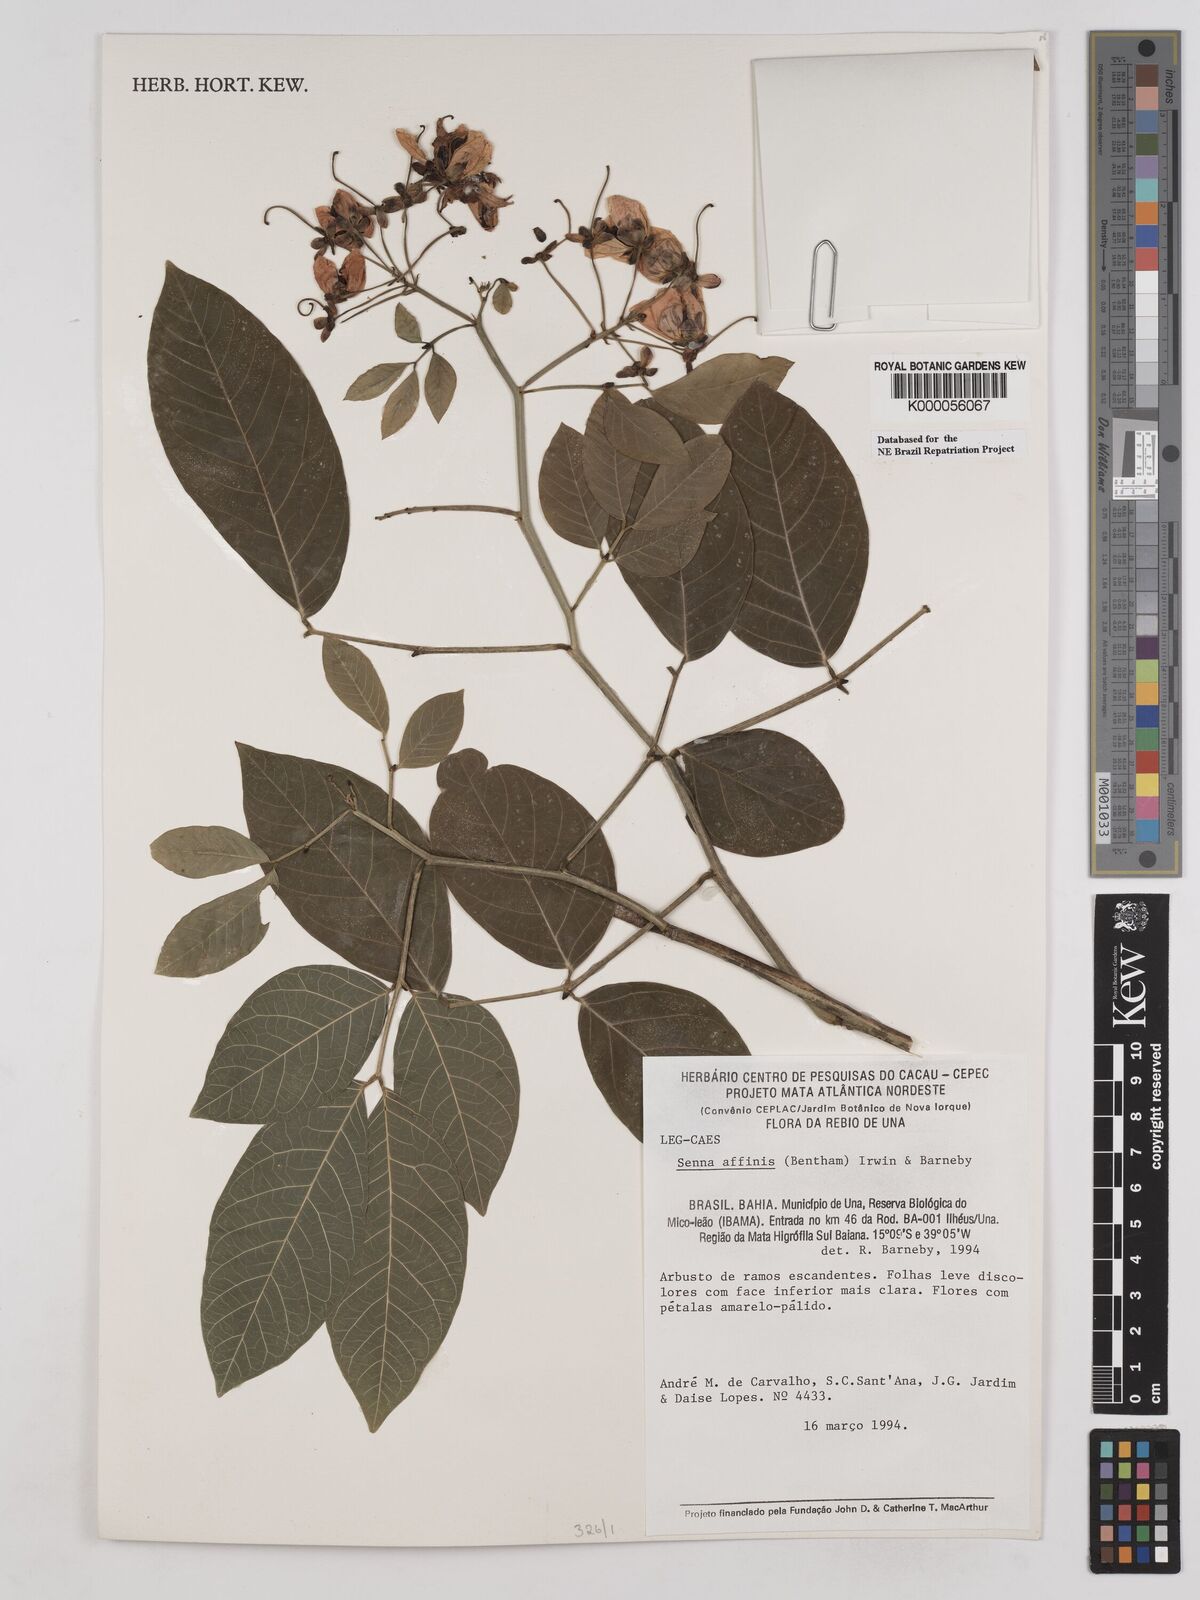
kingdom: Plantae
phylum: Tracheophyta
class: Magnoliopsida
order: Fabales
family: Fabaceae
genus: Senna
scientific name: Senna affinis
